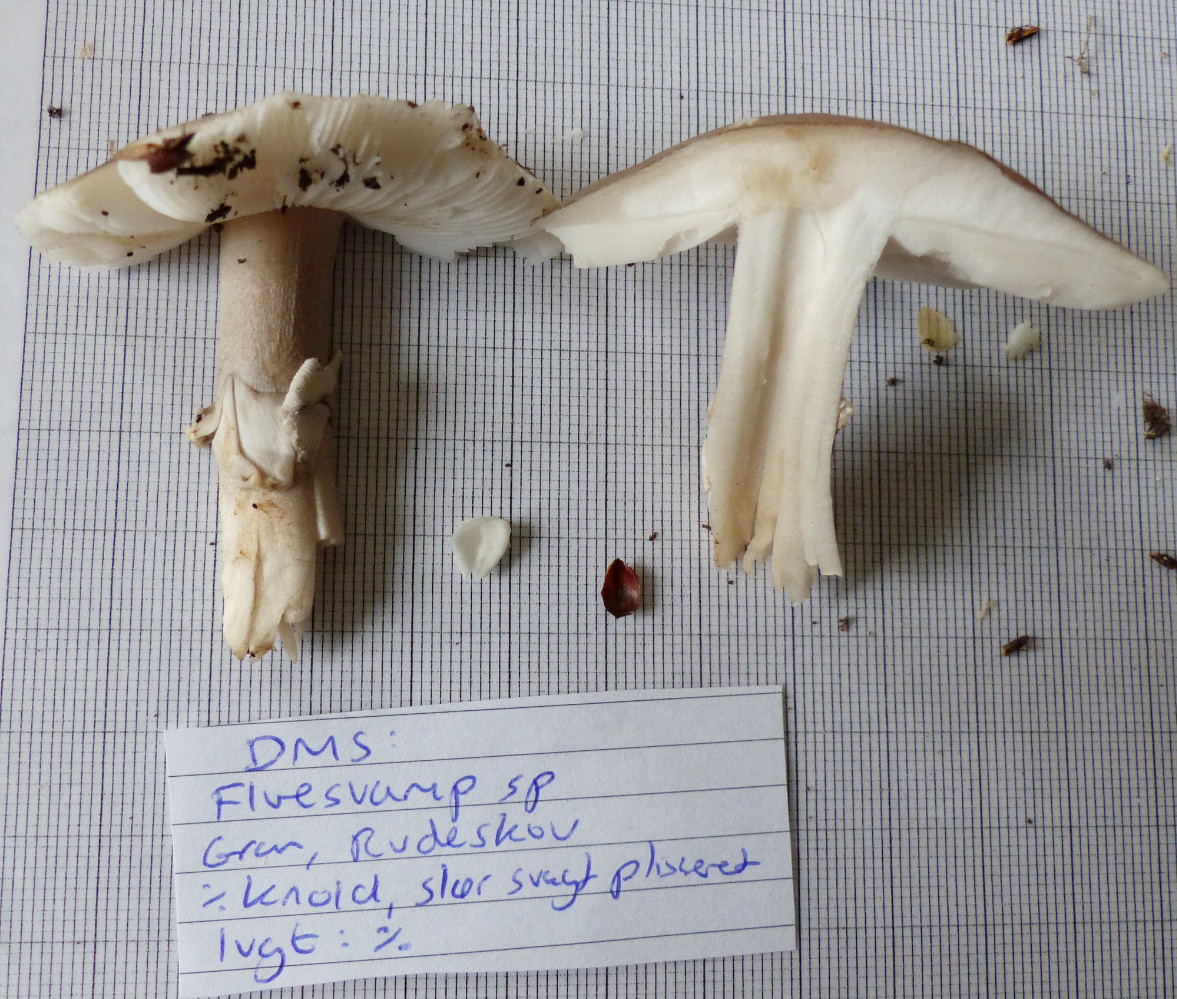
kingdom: Fungi
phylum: Basidiomycota
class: Agaricomycetes
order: Agaricales
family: Amanitaceae
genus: Amanita
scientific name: Amanita rubescens
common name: rødmende fluesvamp
